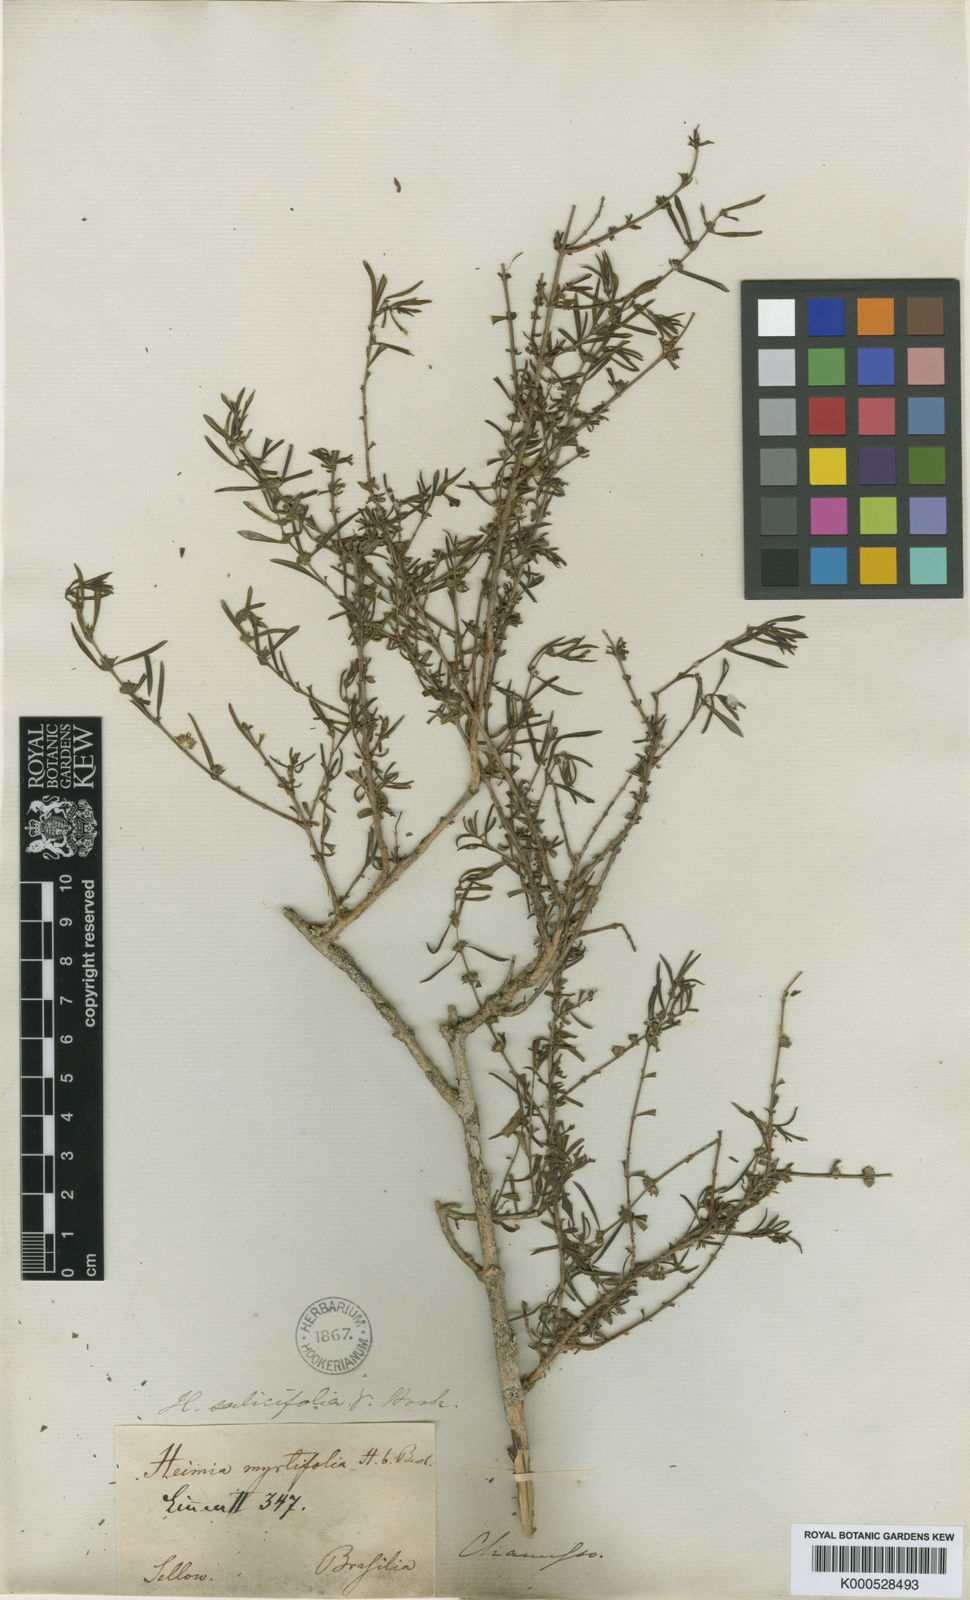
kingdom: Plantae
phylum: Tracheophyta
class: Magnoliopsida
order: Myrtales
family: Lythraceae
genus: Heimia
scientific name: Heimia apetala
